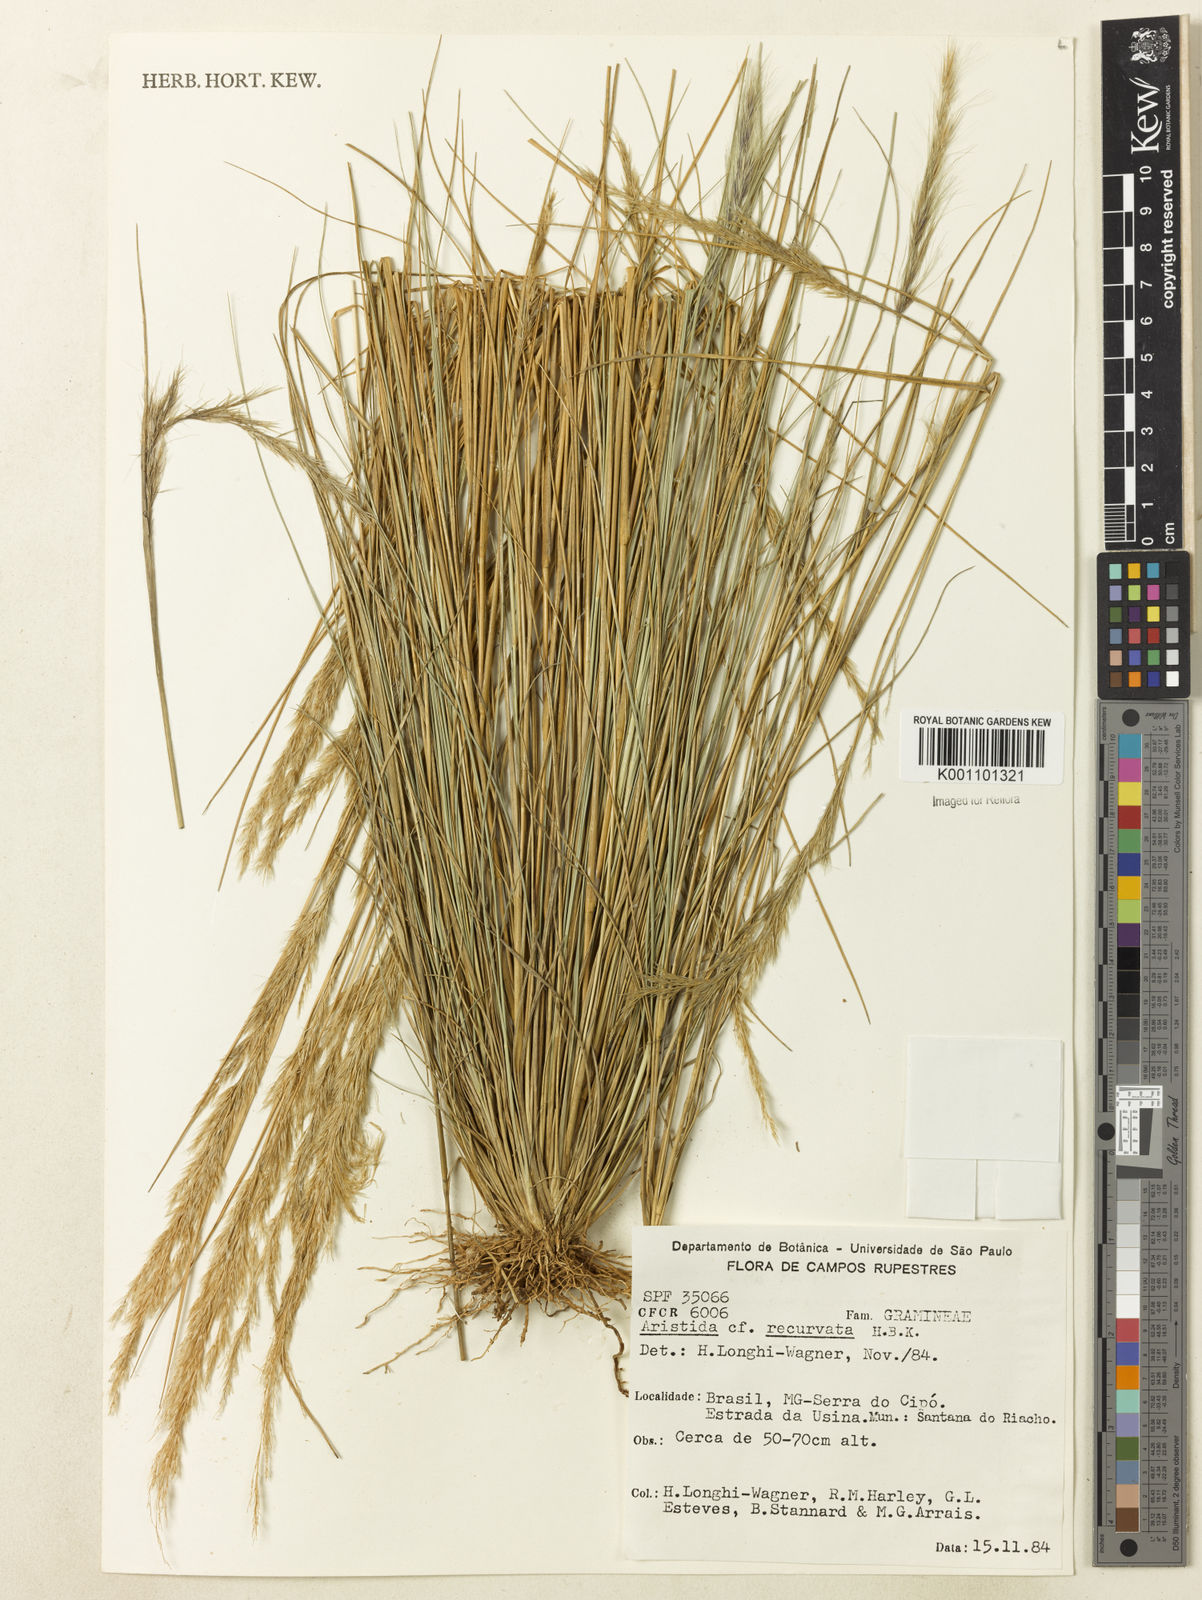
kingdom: Plantae
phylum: Tracheophyta
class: Liliopsida
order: Poales
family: Poaceae
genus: Aristida
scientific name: Aristida recurvata
